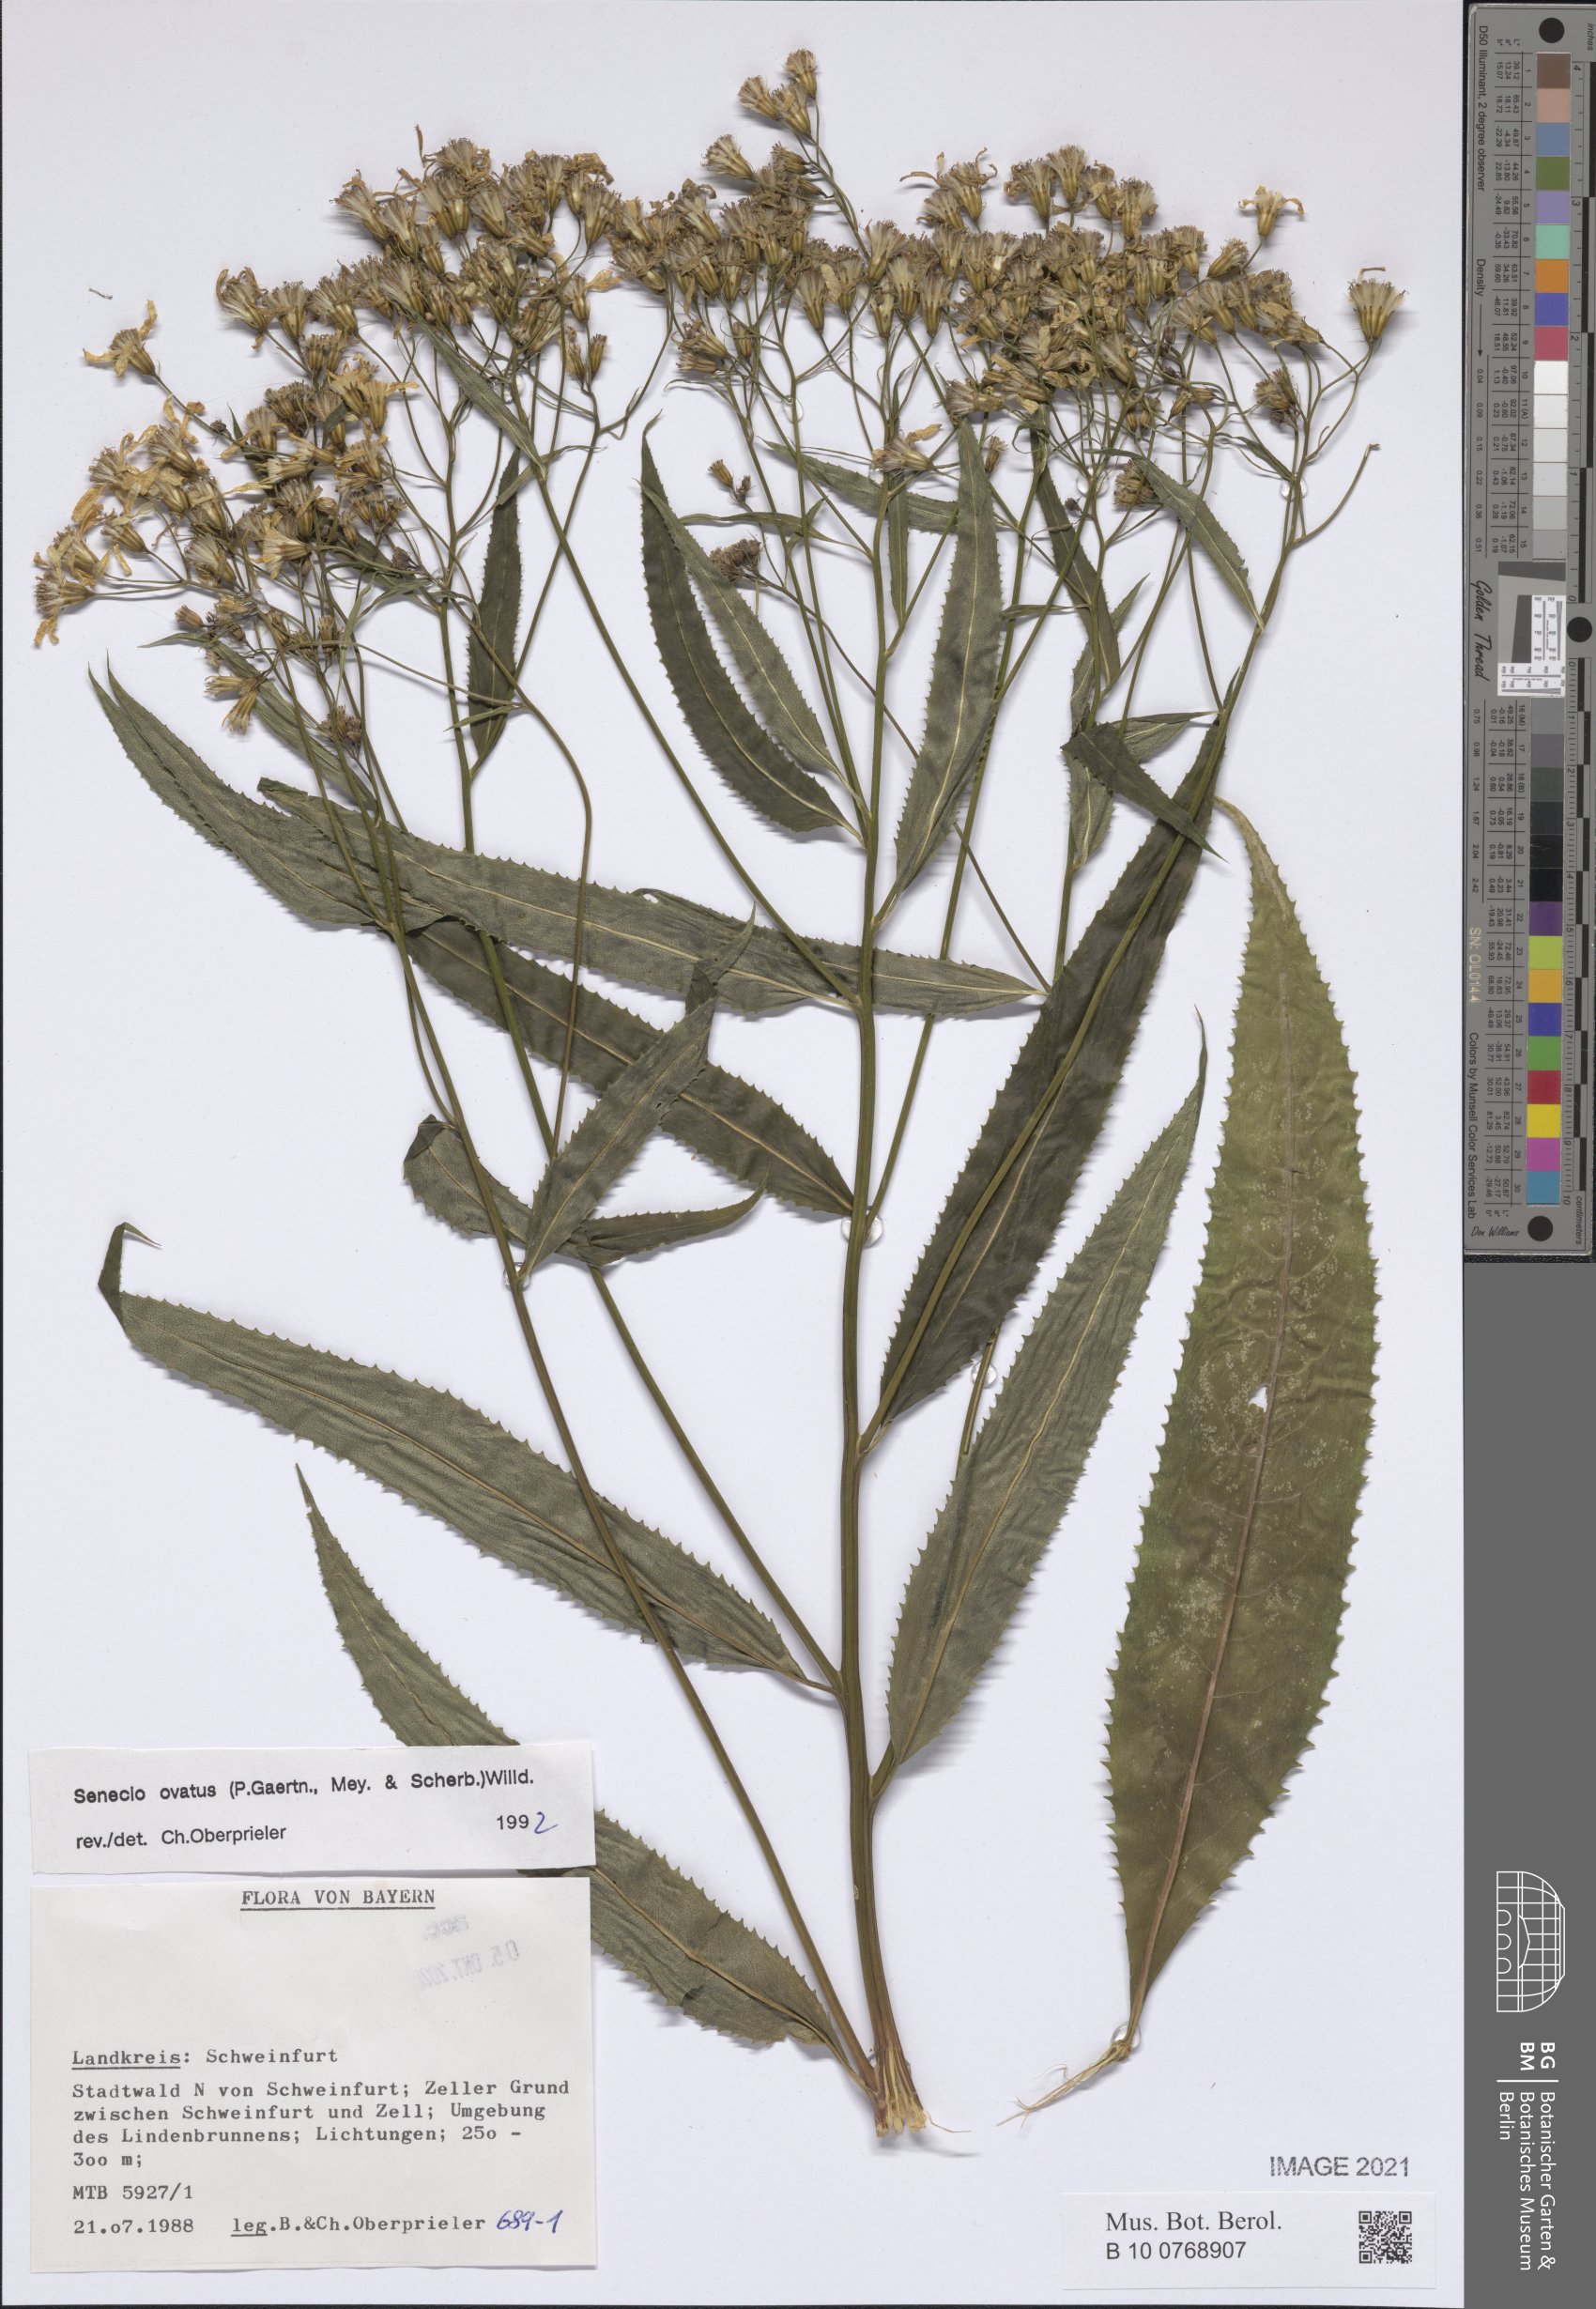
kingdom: Plantae
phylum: Tracheophyta
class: Magnoliopsida
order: Asterales
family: Asteraceae
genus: Senecio
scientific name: Senecio ovatus
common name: Wood ragwort
